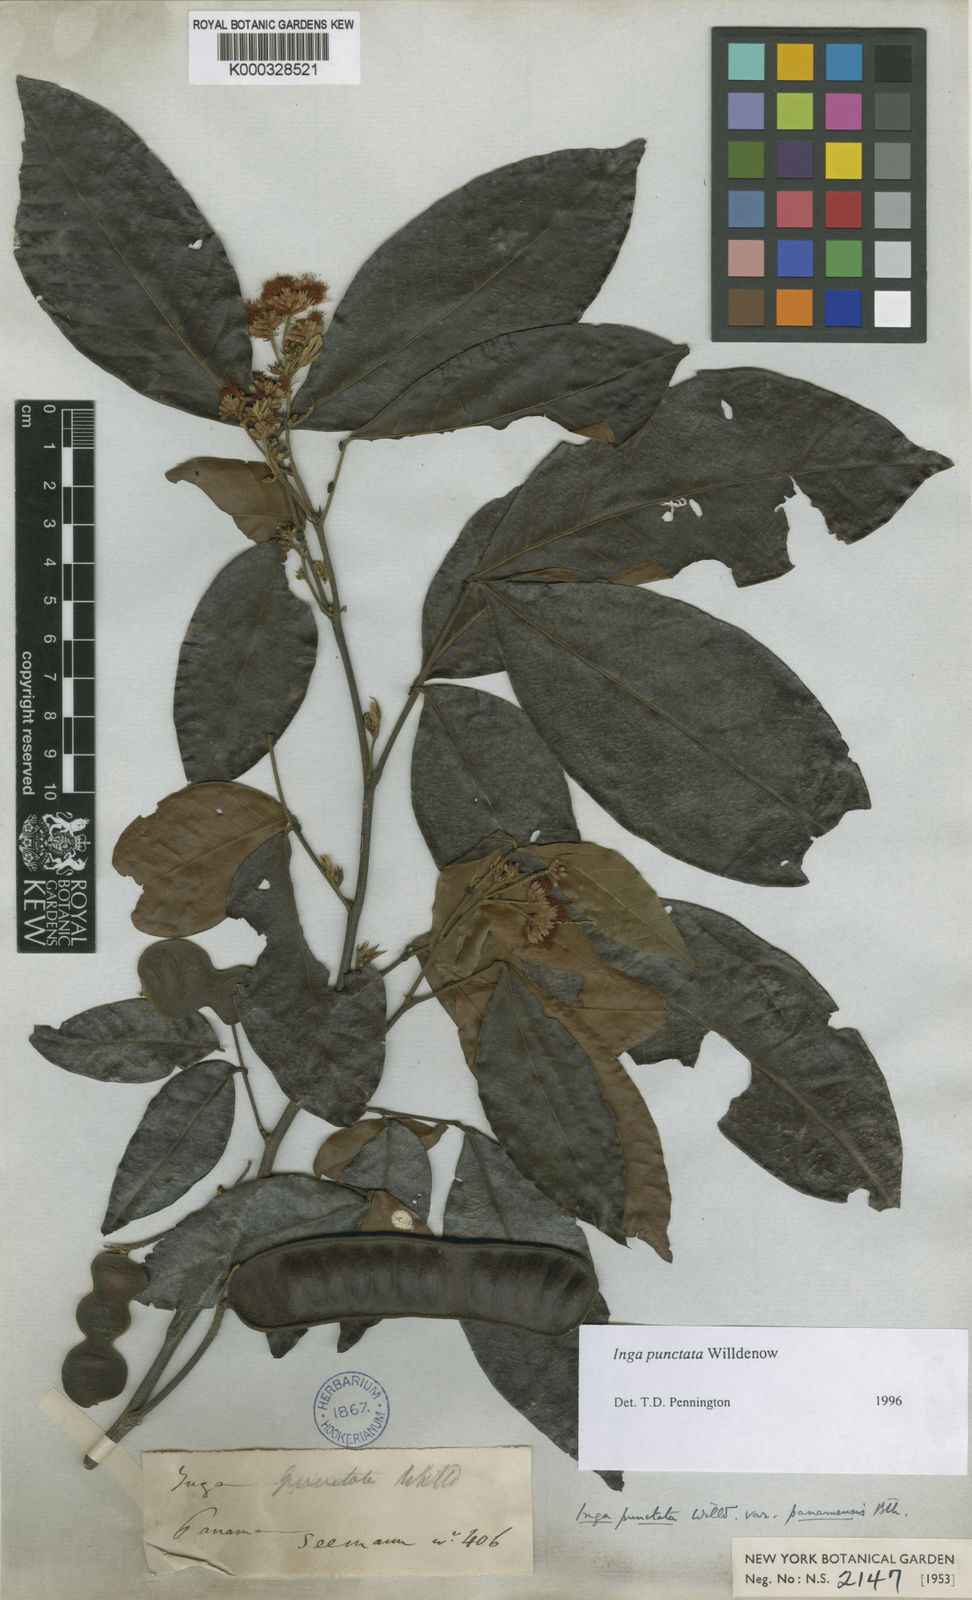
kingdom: Plantae
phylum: Tracheophyta
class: Magnoliopsida
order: Fabales
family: Fabaceae
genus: Inga
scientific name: Inga punctata
